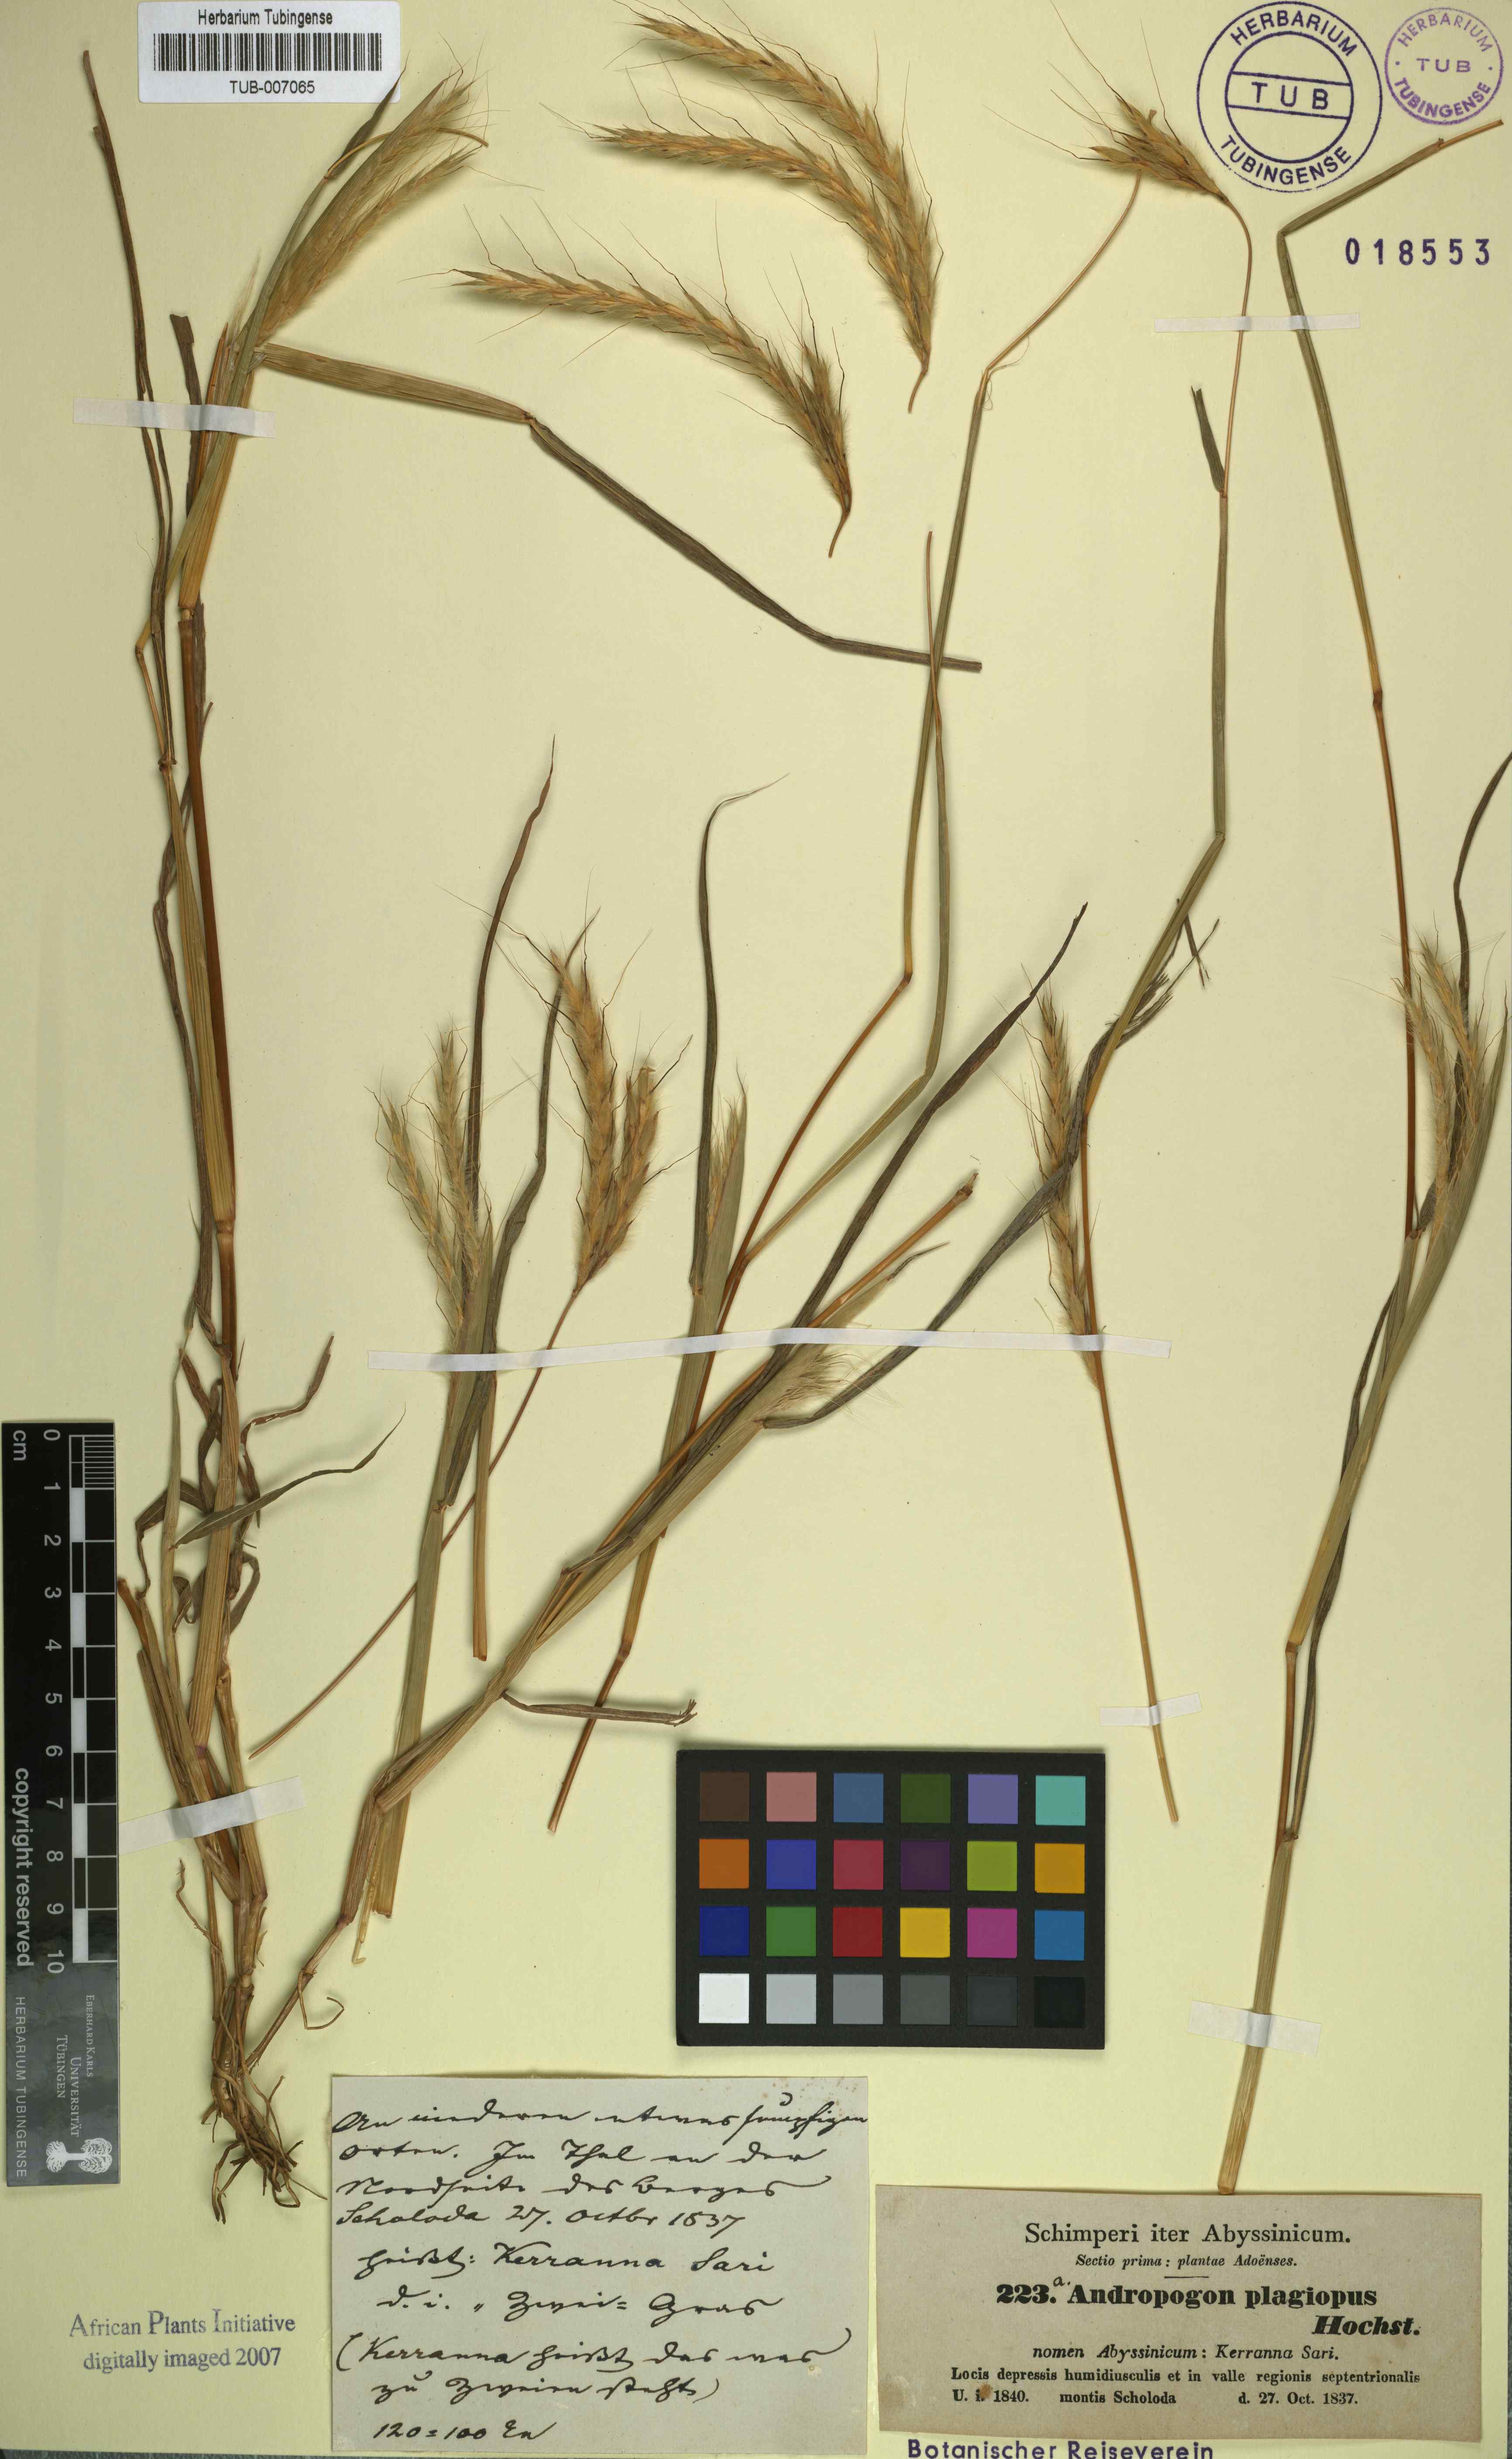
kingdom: Plantae
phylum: Tracheophyta
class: Liliopsida
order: Poales
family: Poaceae
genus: Andropogon
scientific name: Andropogon abyssinicus
